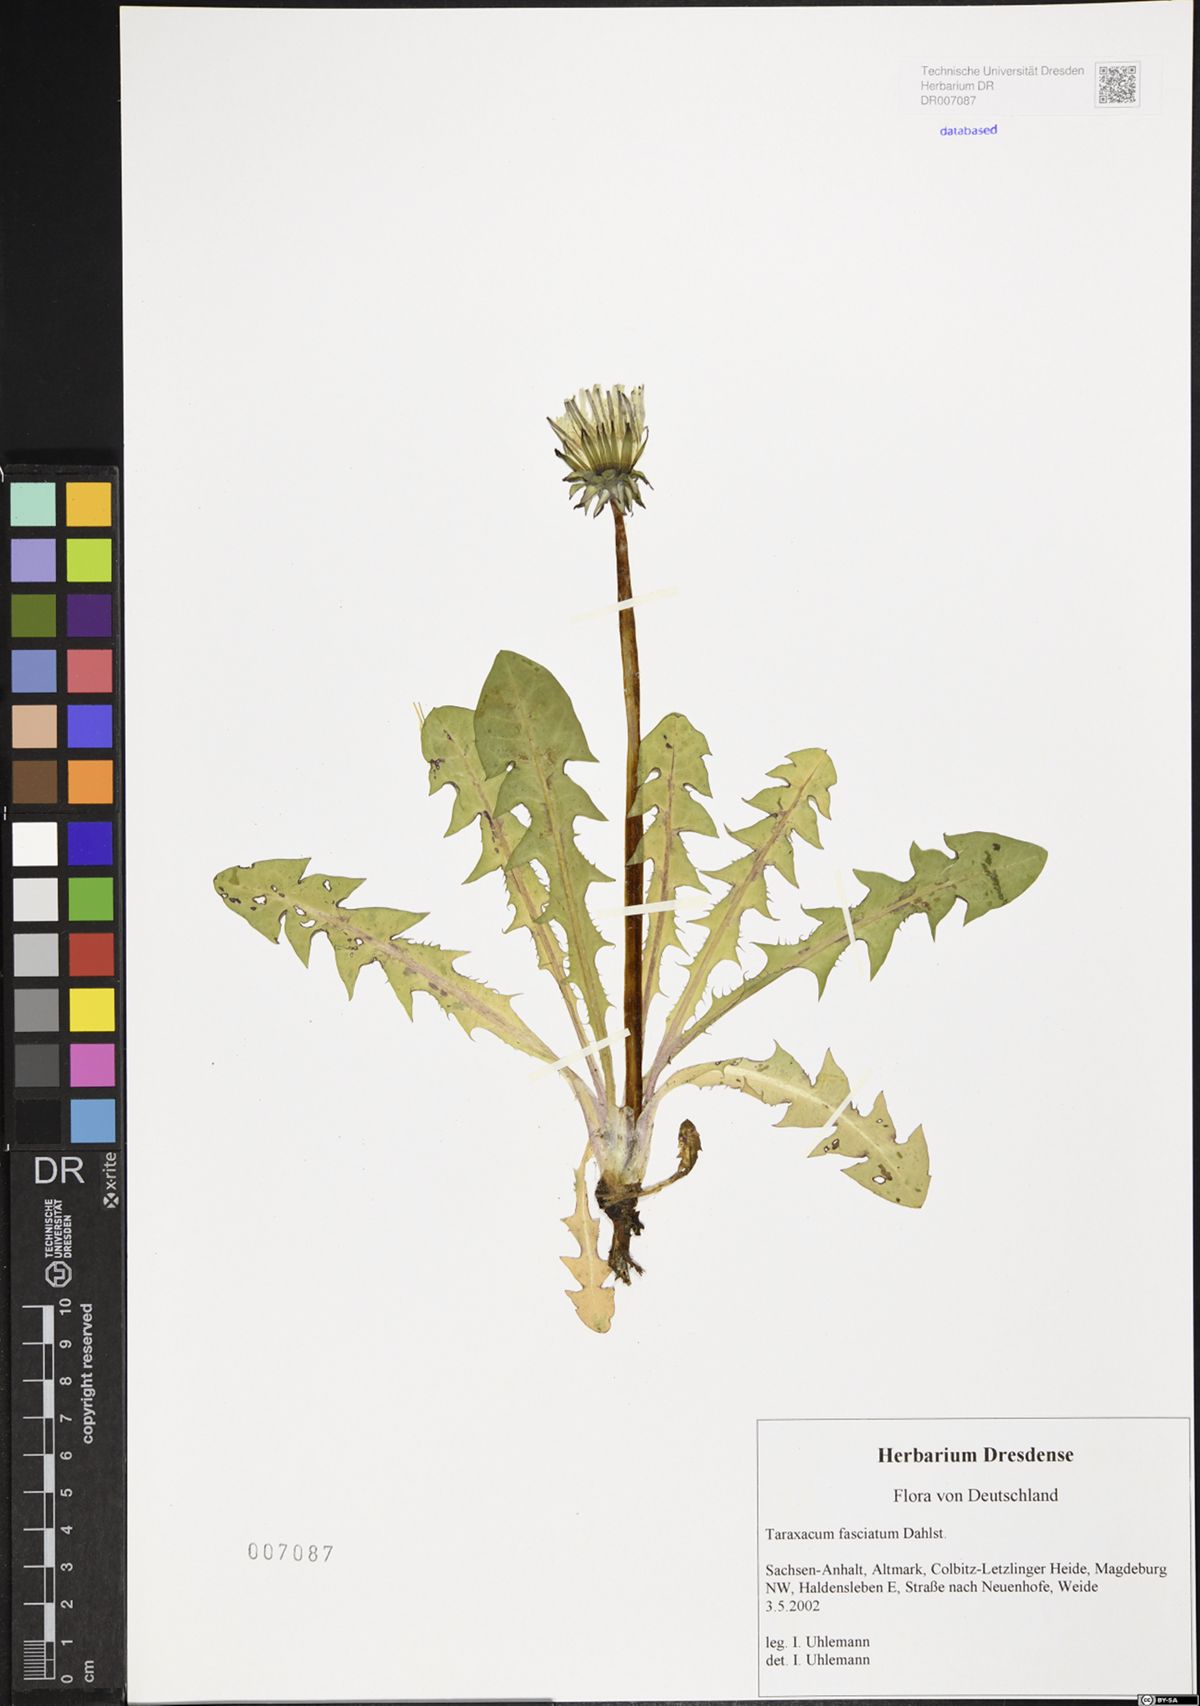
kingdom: Plantae
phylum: Tracheophyta
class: Magnoliopsida
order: Asterales
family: Asteraceae
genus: Taraxacum
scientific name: Taraxacum fasciatum
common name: Dense-bracted dandelion
